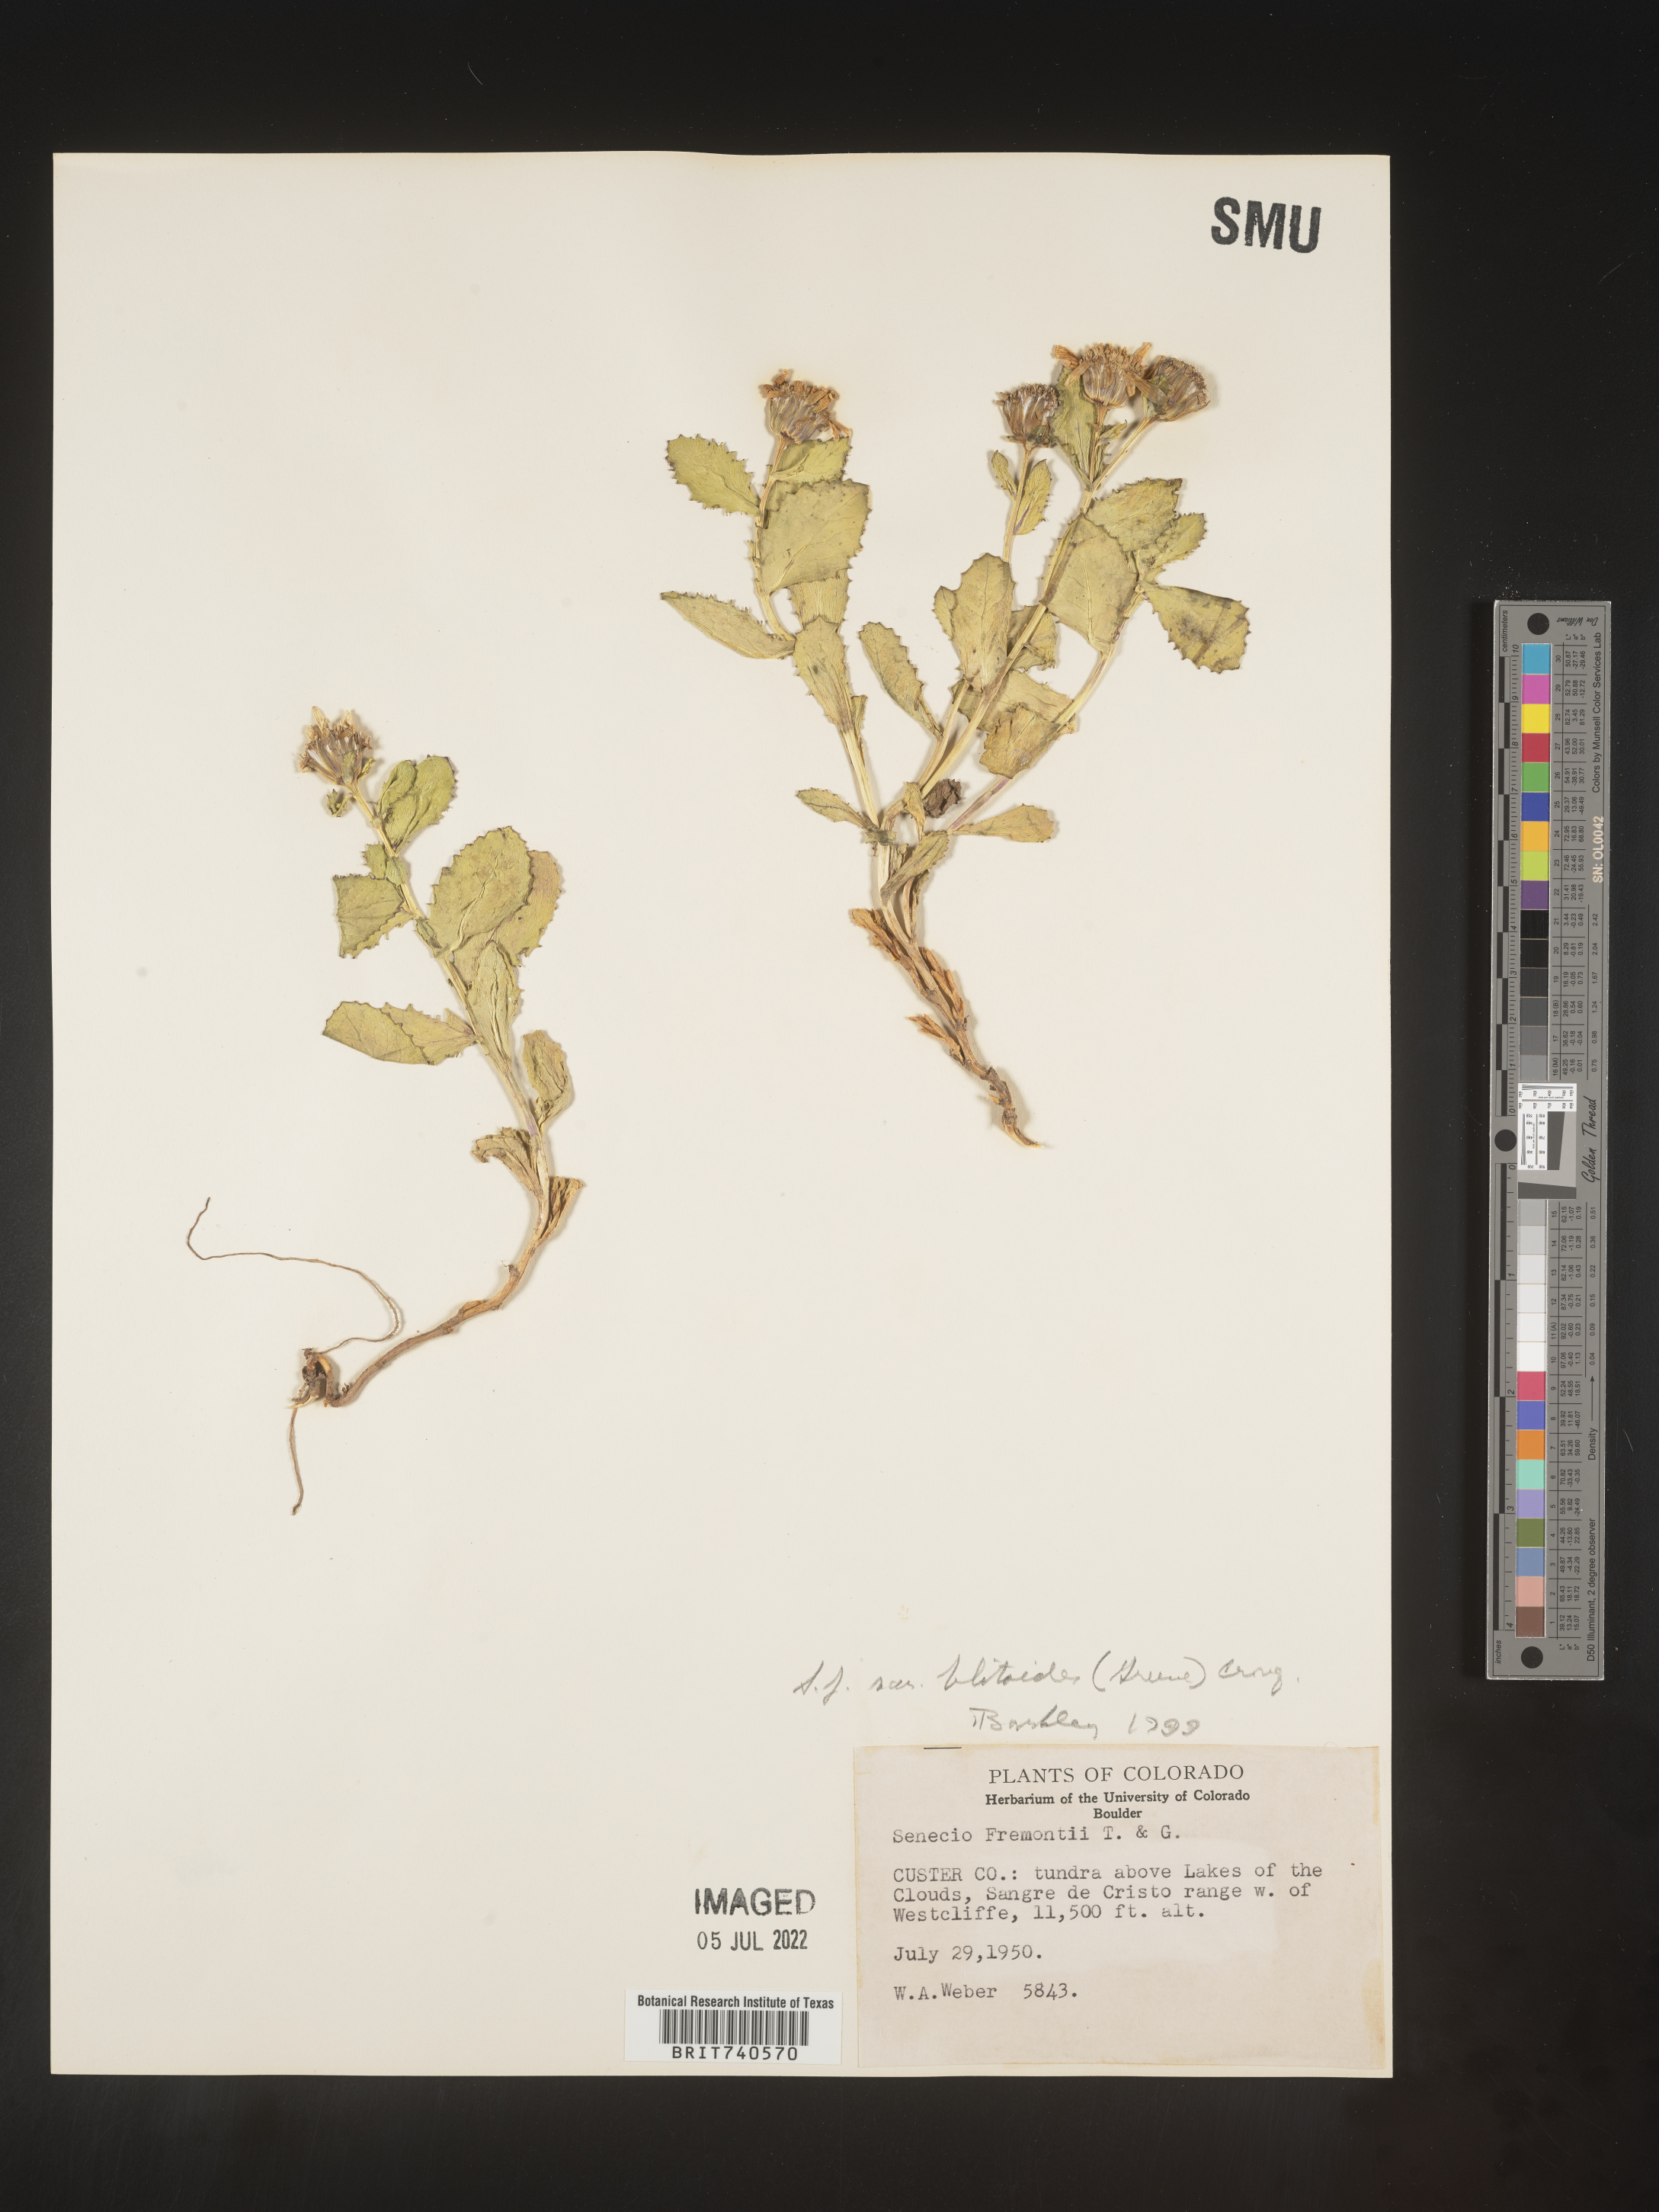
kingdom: Plantae
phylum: Tracheophyta
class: Magnoliopsida
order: Asterales
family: Asteraceae
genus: Senecio
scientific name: Senecio blitoides
